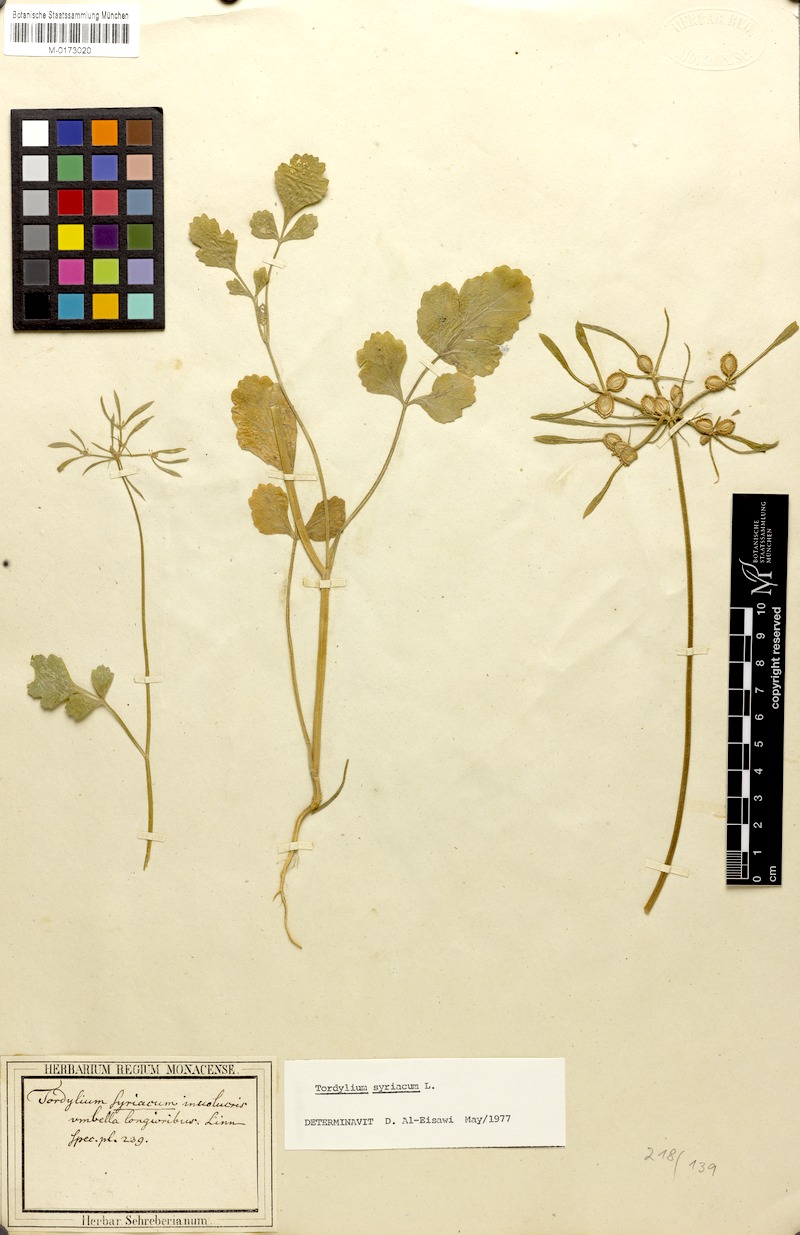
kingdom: Plantae
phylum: Tracheophyta
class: Magnoliopsida
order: Apiales
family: Apiaceae
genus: Tordylium
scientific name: Tordylium syriacum
